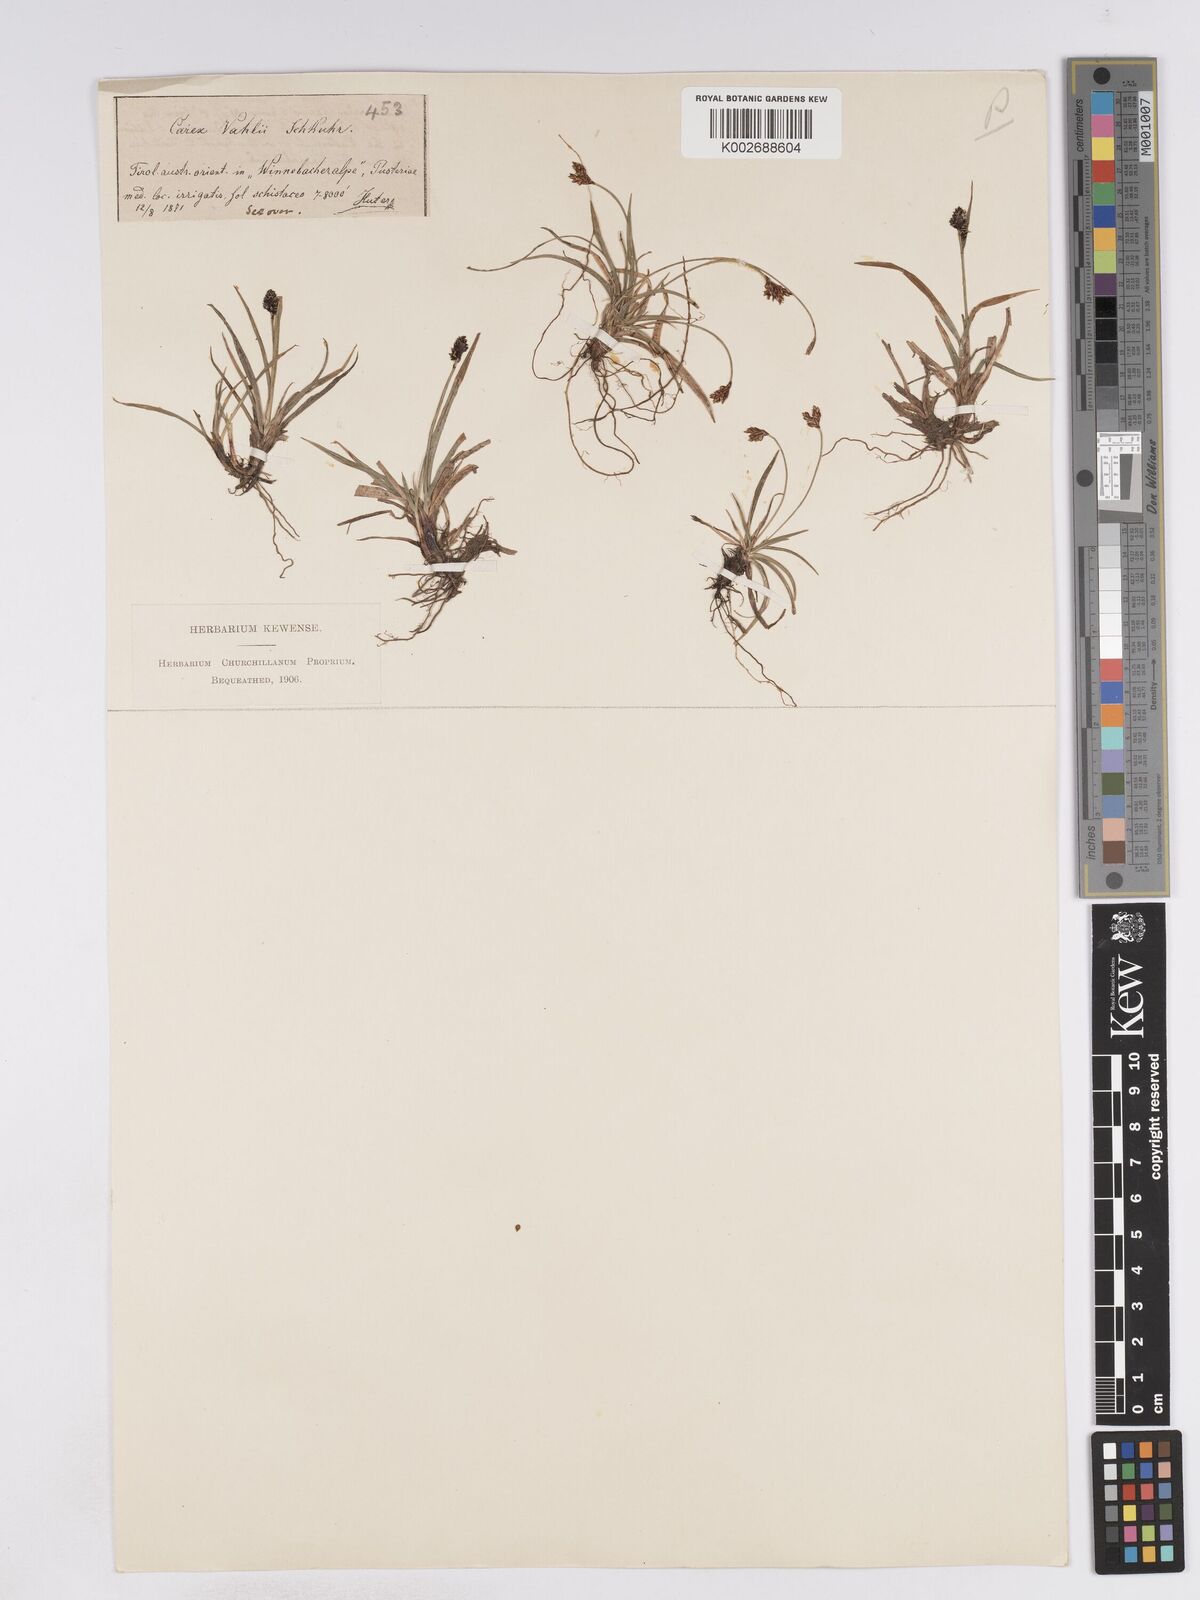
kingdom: Plantae
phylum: Tracheophyta
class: Liliopsida
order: Poales
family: Cyperaceae
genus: Carex
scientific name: Carex norvegica
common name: Close-headed alpine-sedge
